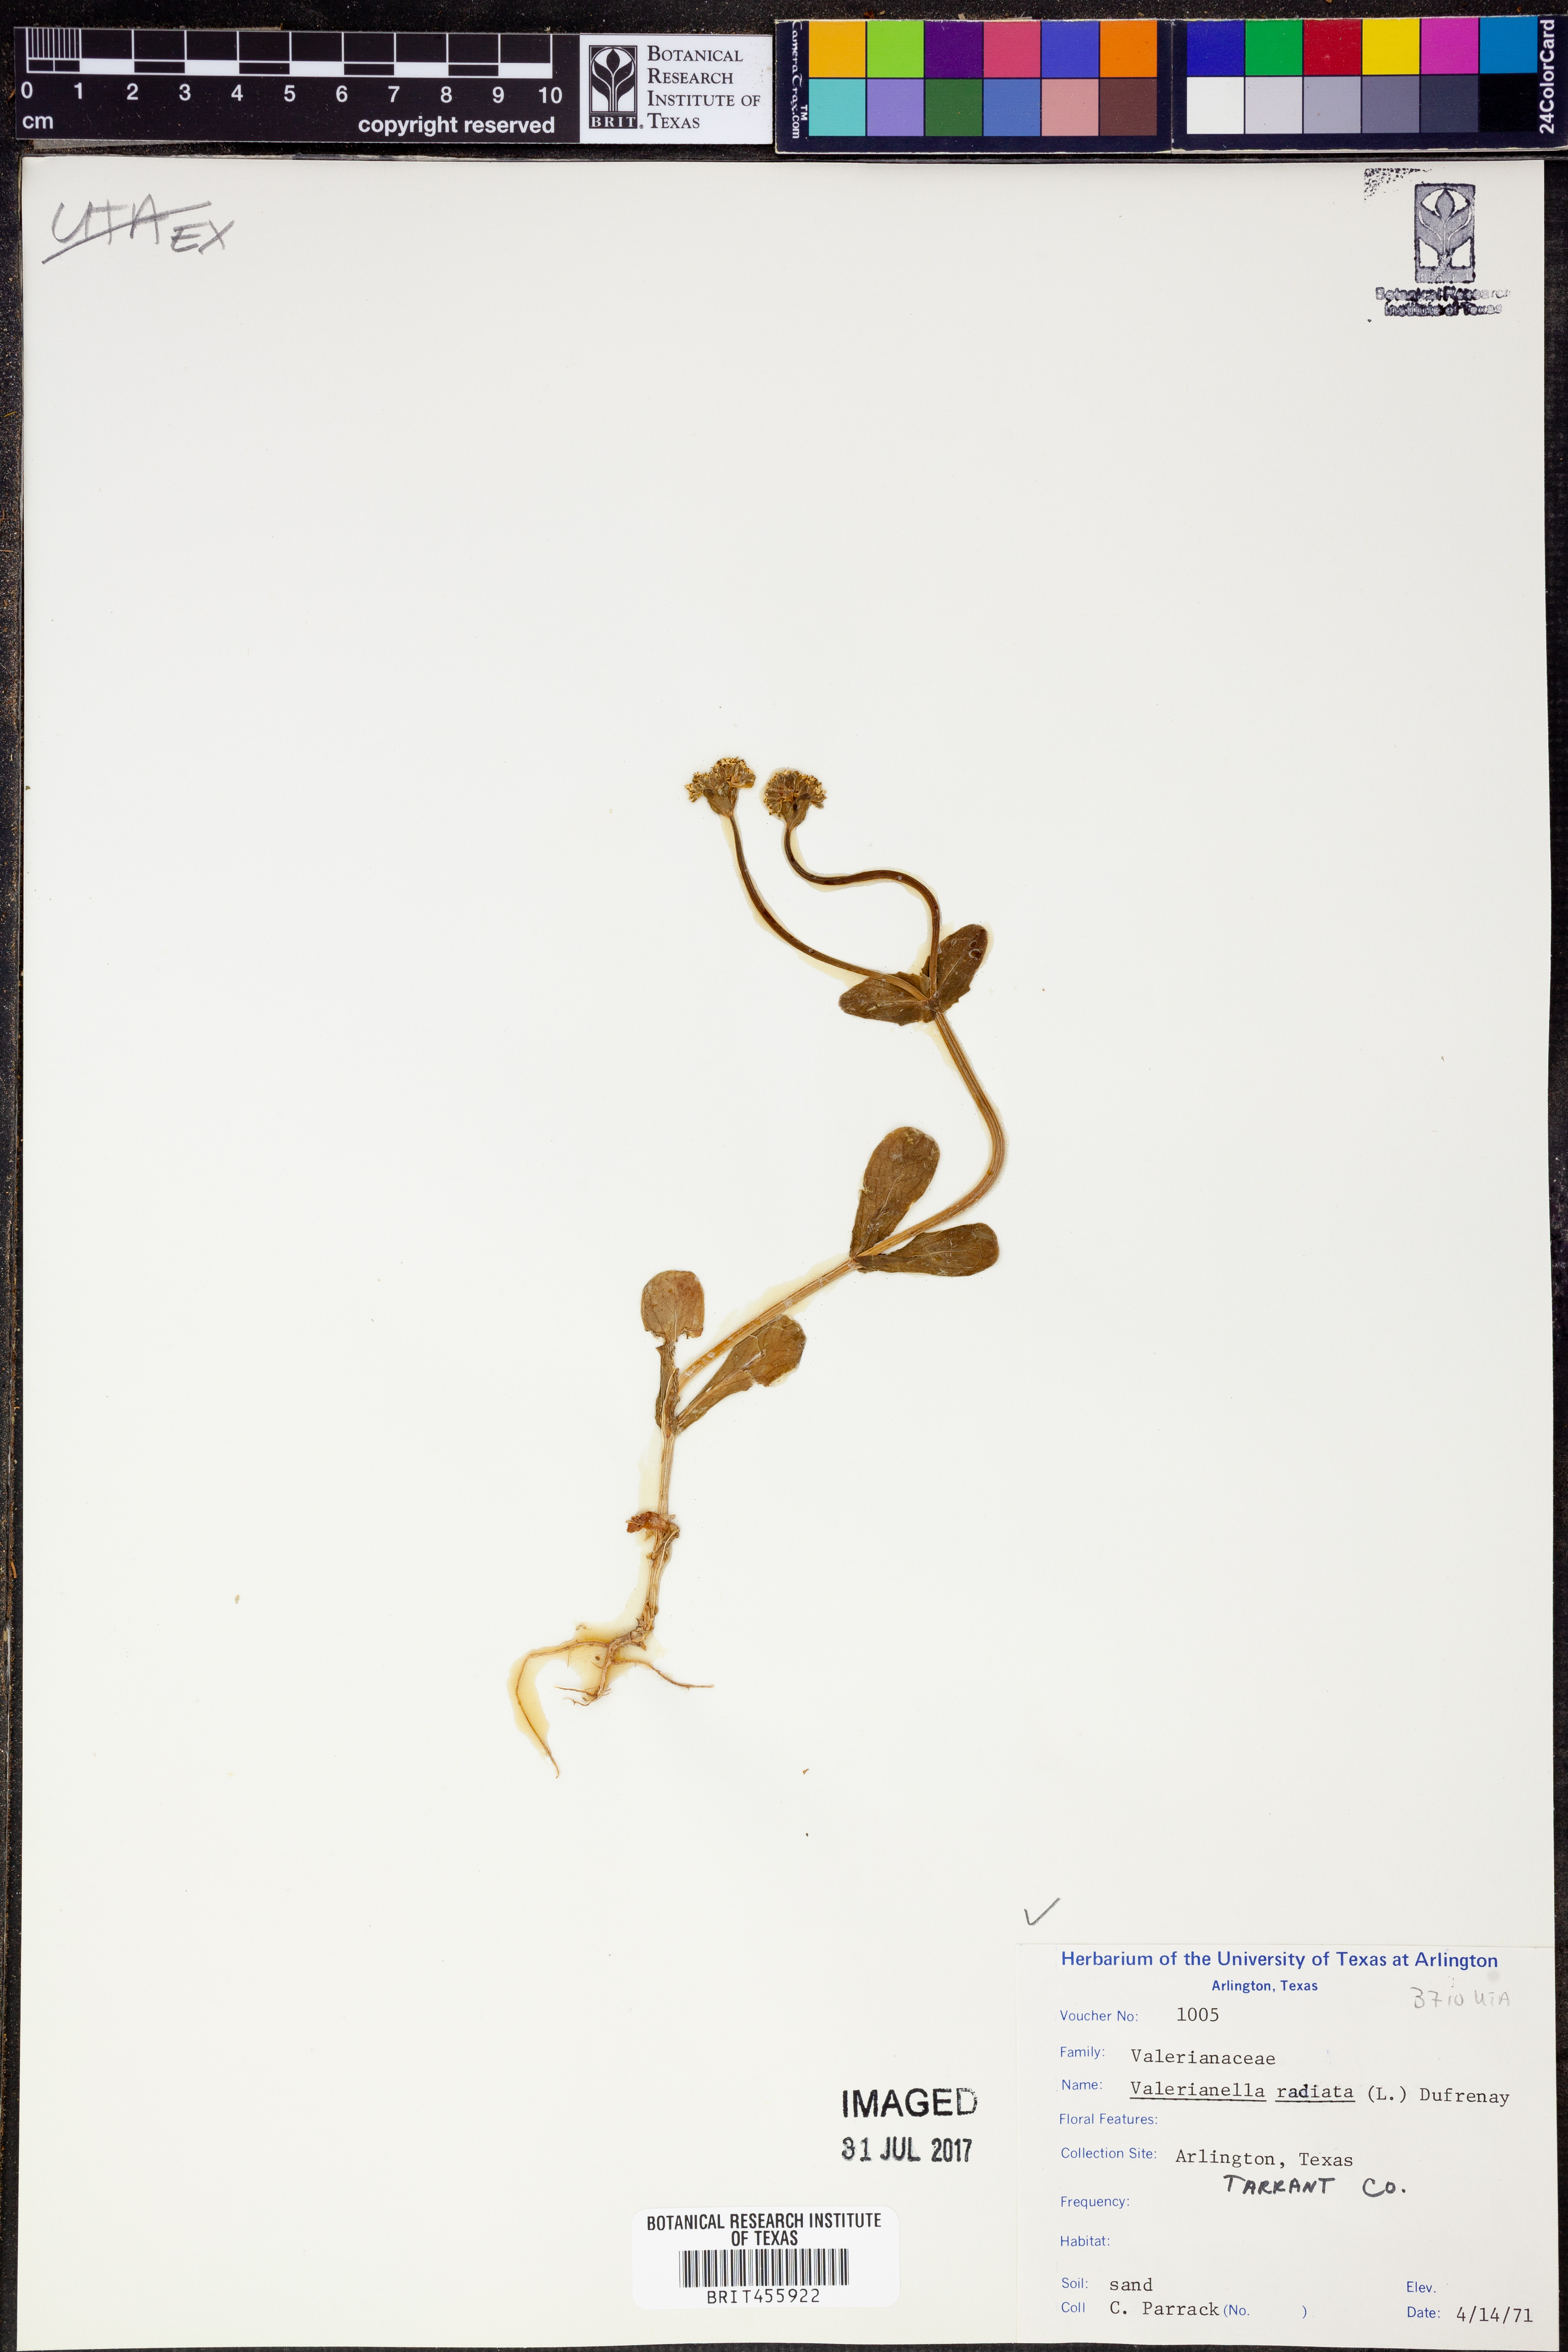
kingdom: Plantae
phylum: Tracheophyta
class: Magnoliopsida
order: Dipsacales
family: Caprifoliaceae
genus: Valerianella
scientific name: Valerianella radiata
